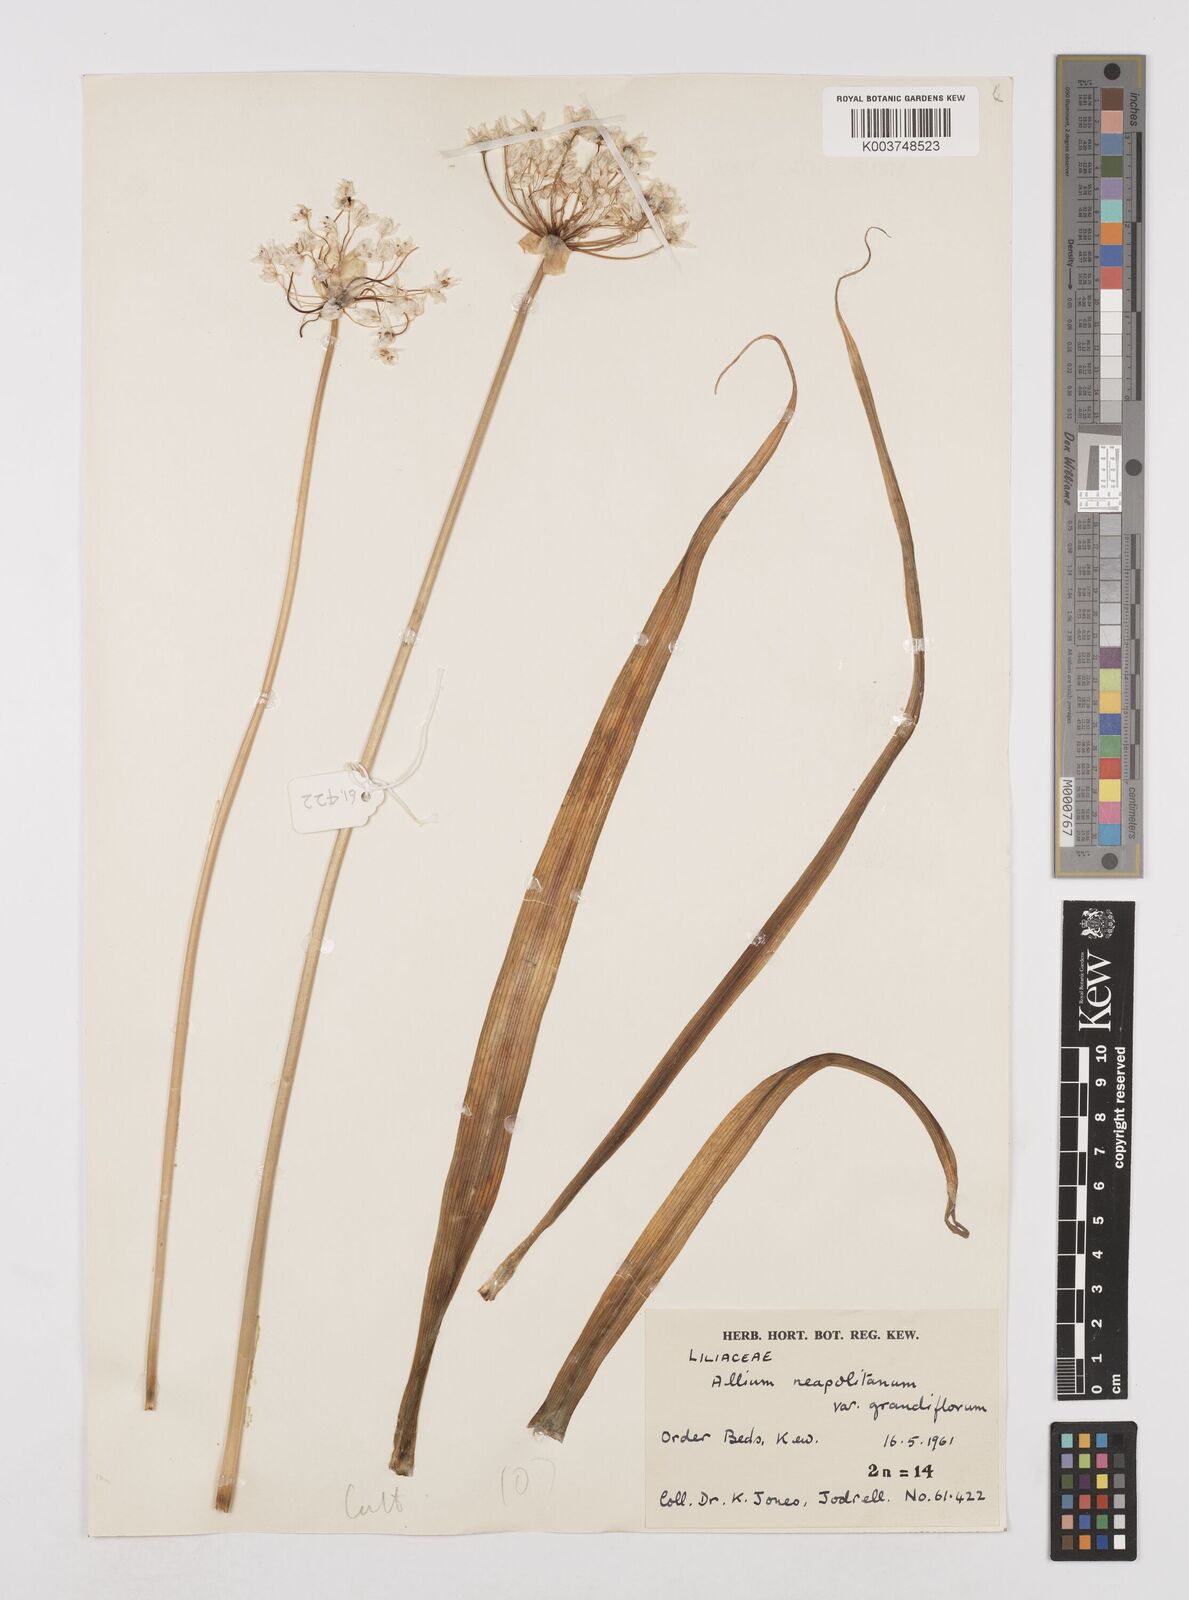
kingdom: Plantae
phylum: Tracheophyta
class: Liliopsida
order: Asparagales
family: Amaryllidaceae
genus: Allium
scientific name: Allium neapolitanum
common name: Neapolitan garlic
